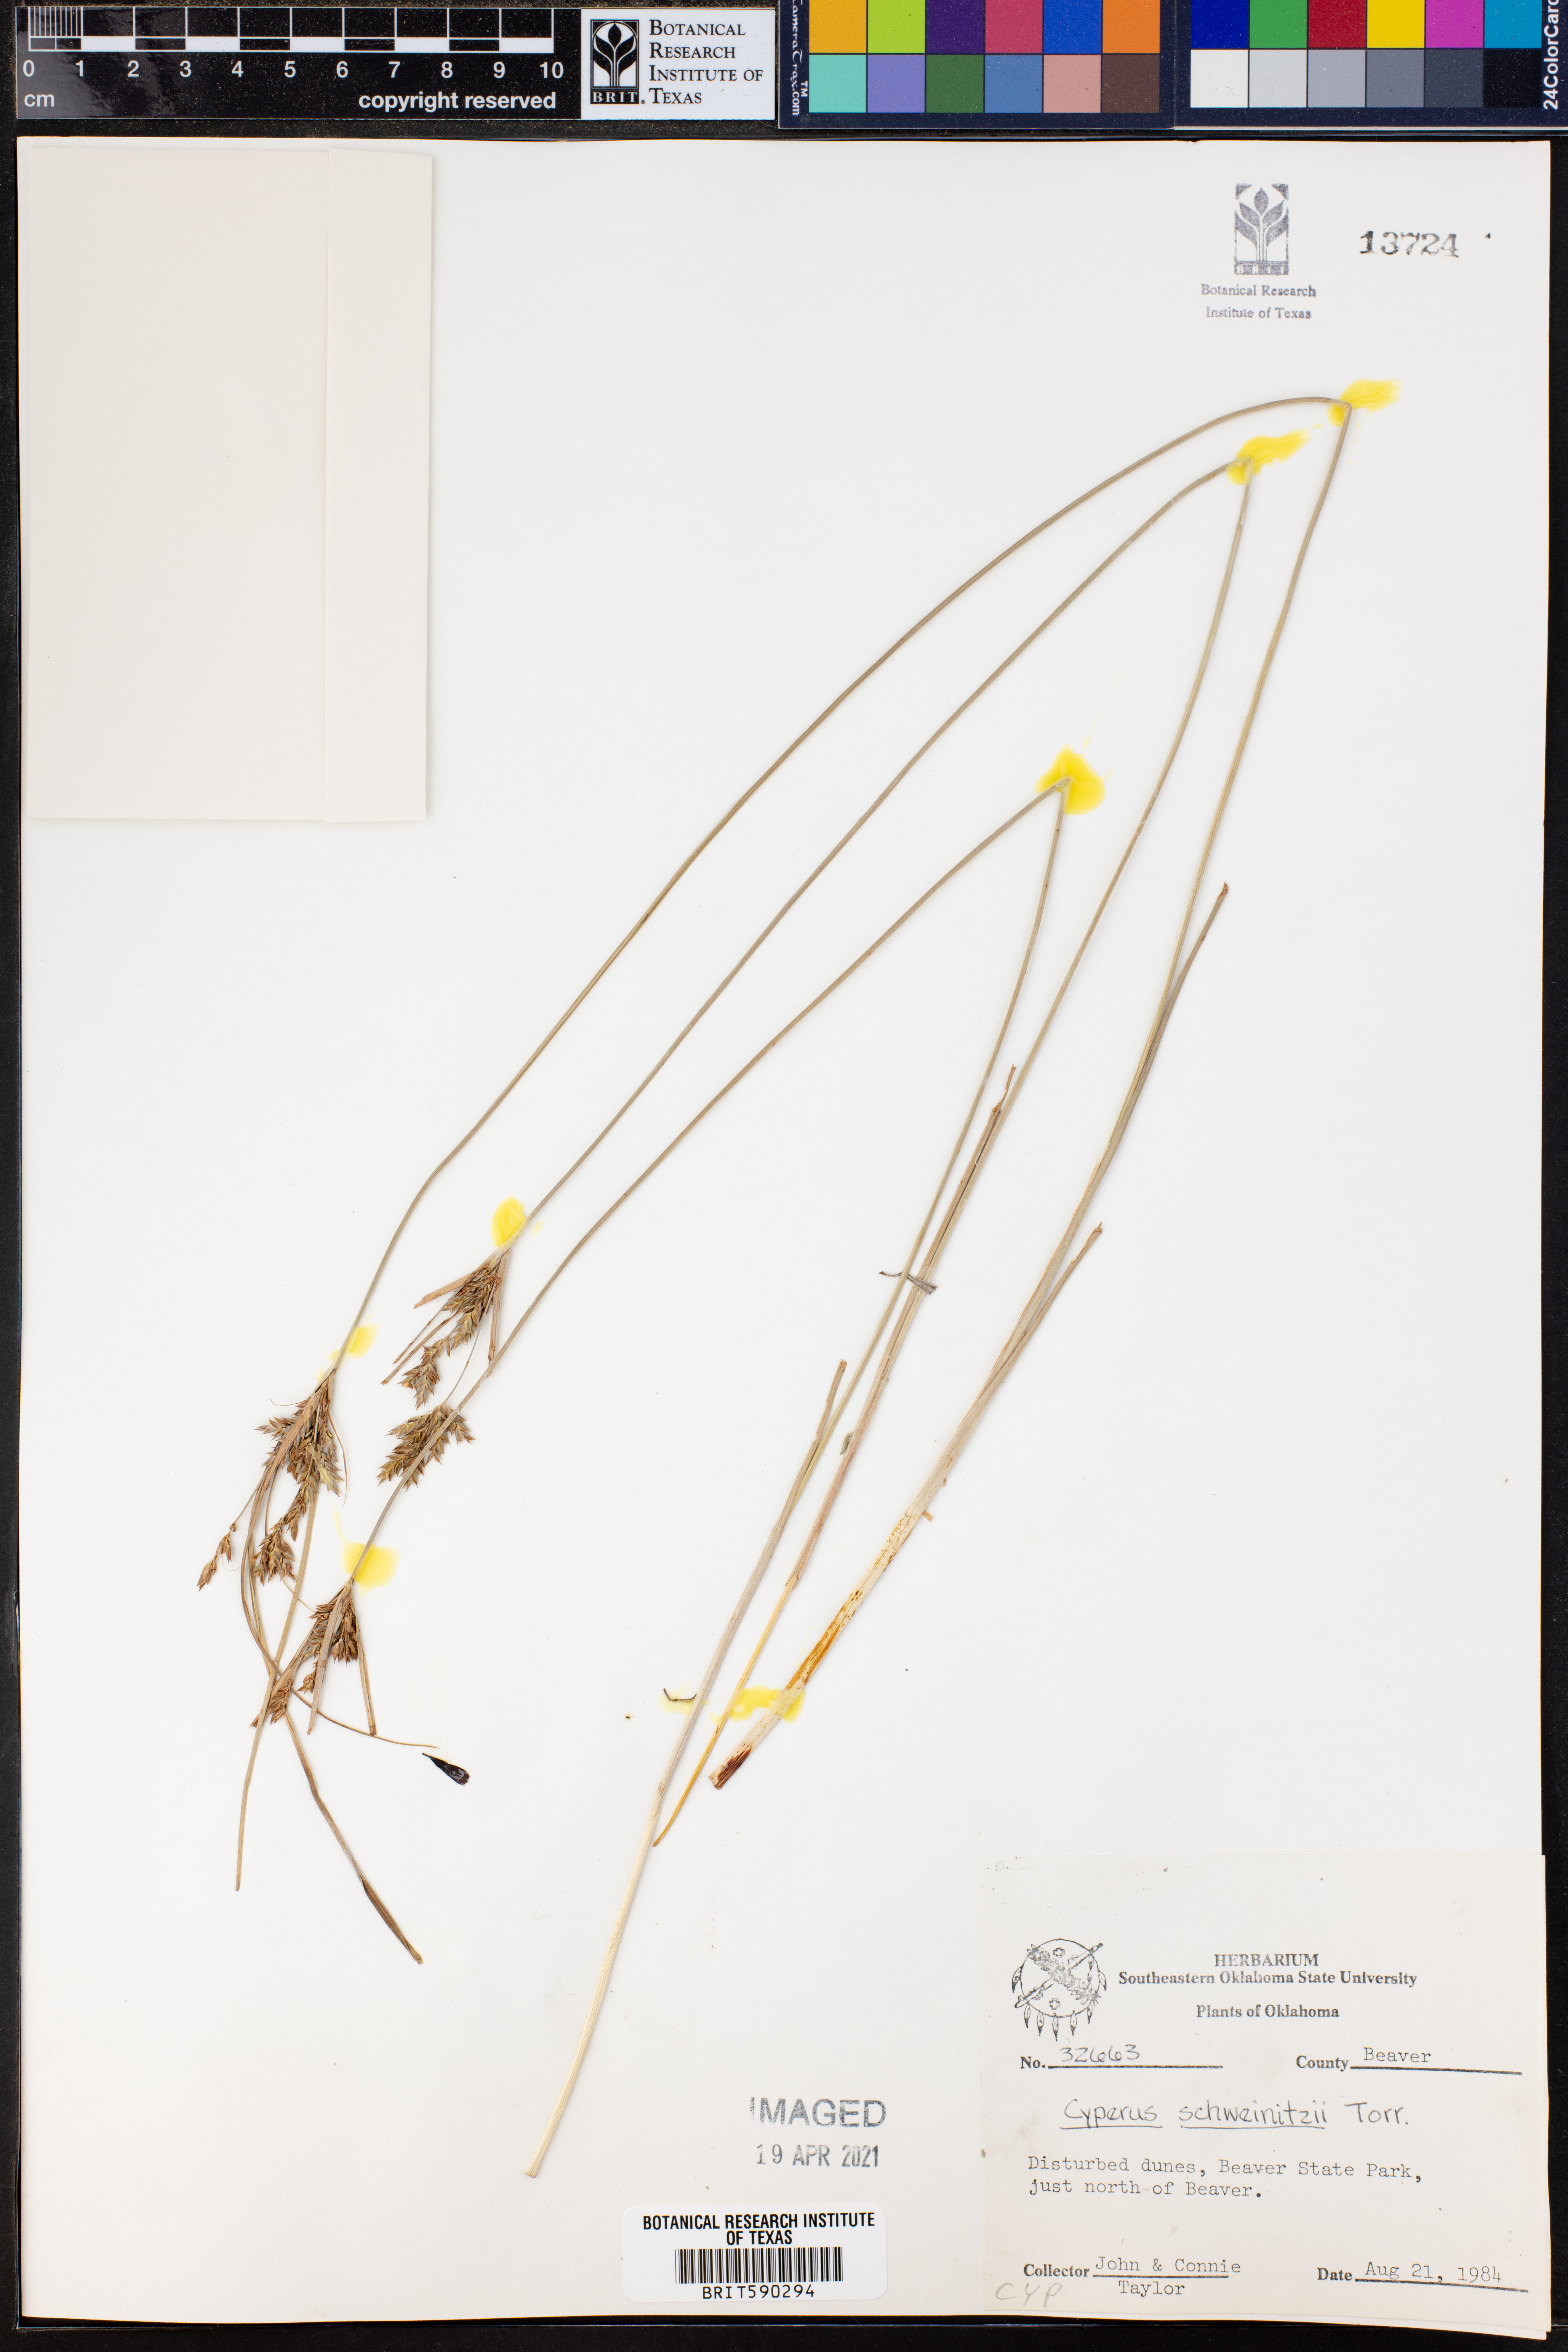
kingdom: Plantae
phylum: Tracheophyta
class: Liliopsida
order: Poales
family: Cyperaceae
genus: Cyperus
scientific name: Cyperus schweinitzii
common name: Schweinitz's cyperus
